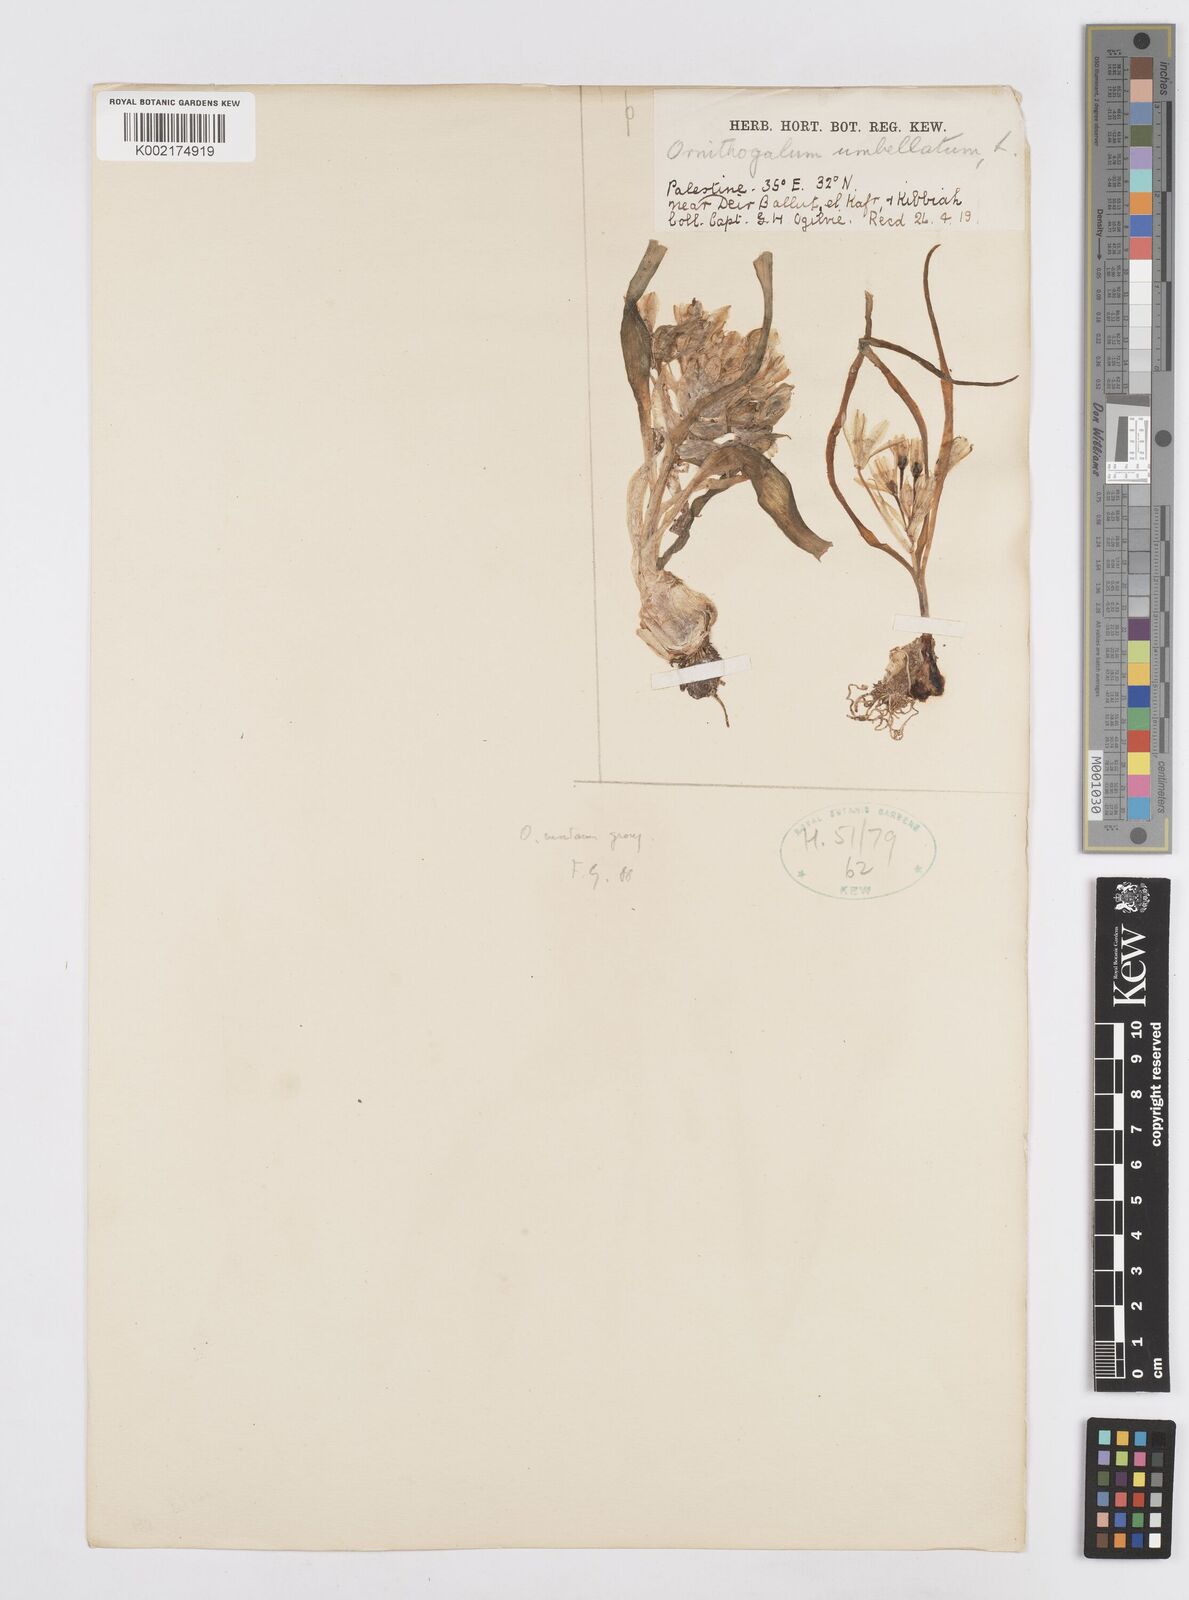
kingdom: Plantae
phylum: Tracheophyta
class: Liliopsida
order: Asparagales
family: Asparagaceae
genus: Ornithogalum
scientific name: Ornithogalum umbellatum
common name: Garden star-of-bethlehem
